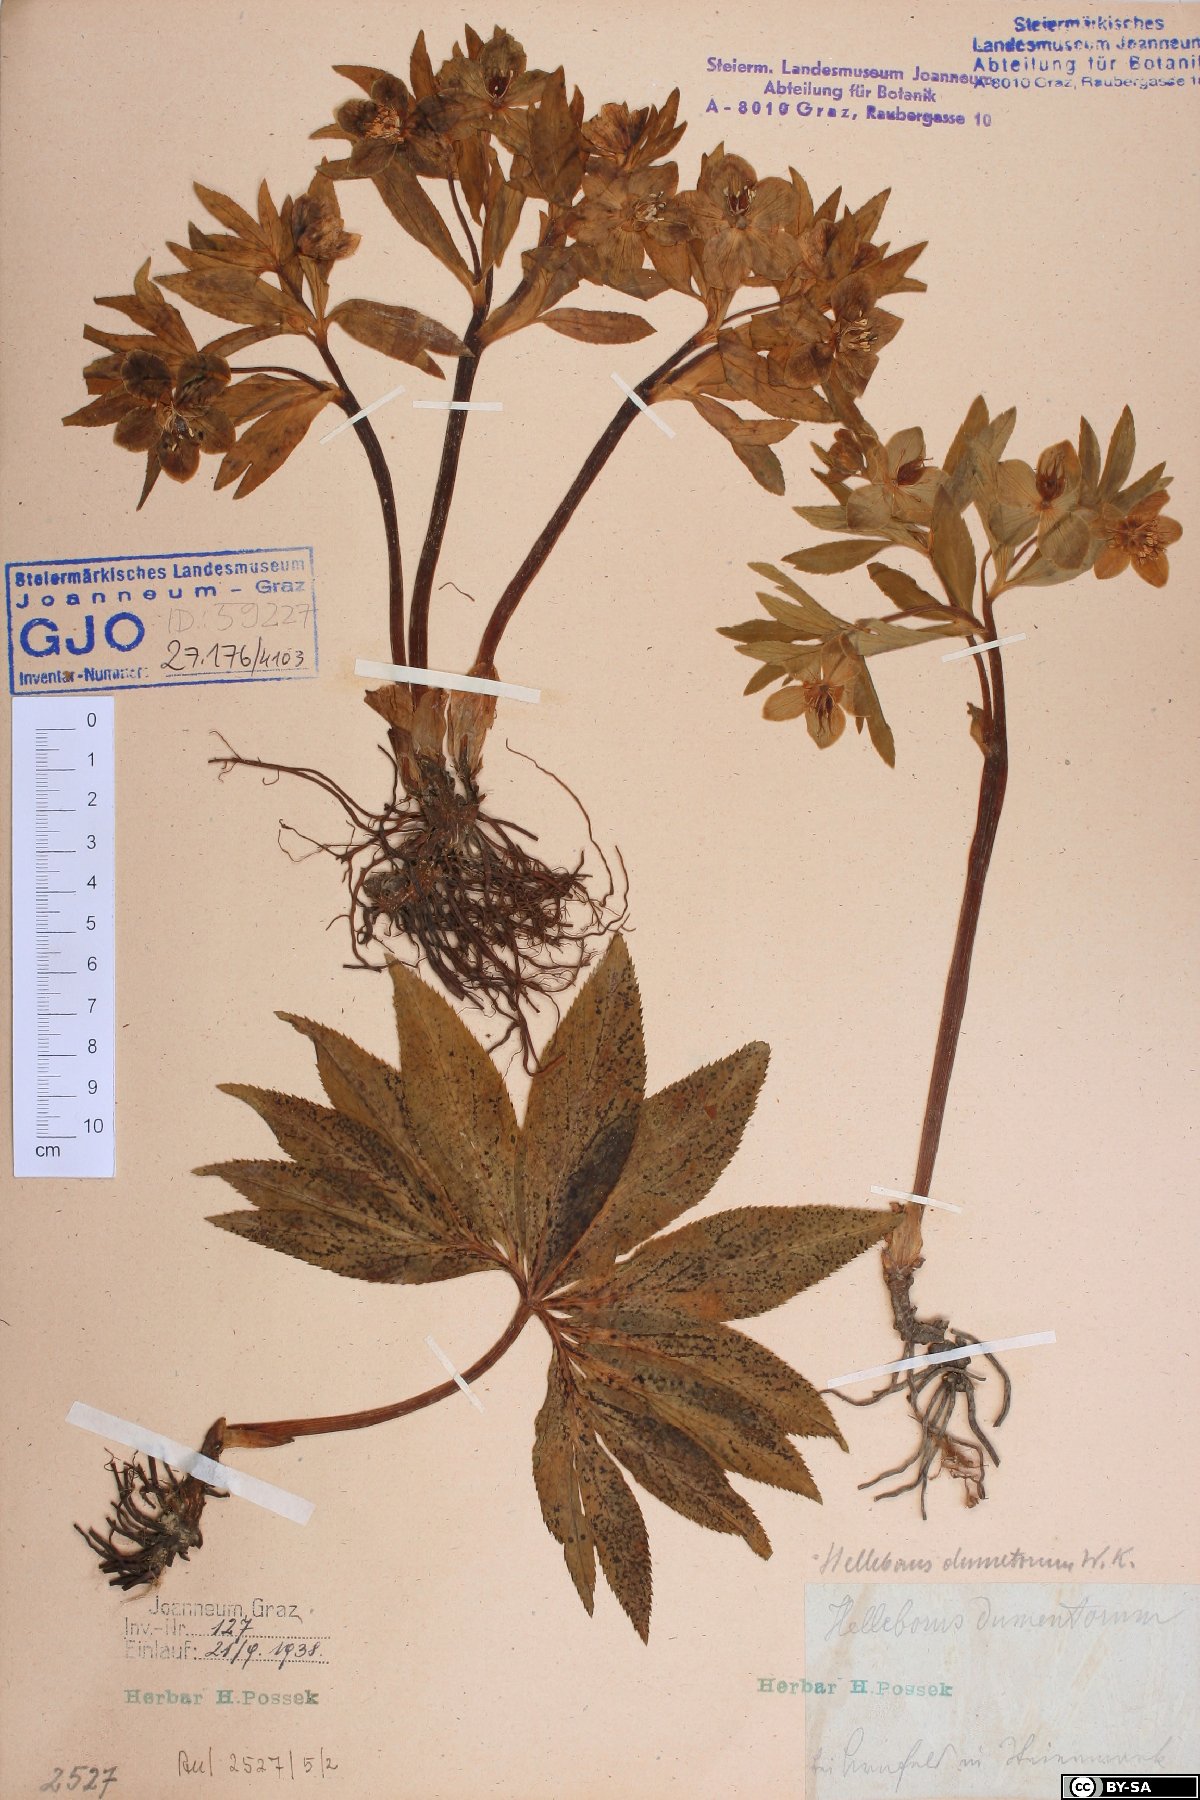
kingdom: Plantae
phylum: Tracheophyta
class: Magnoliopsida
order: Ranunculales
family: Ranunculaceae
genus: Helleborus
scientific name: Helleborus dumetorum
